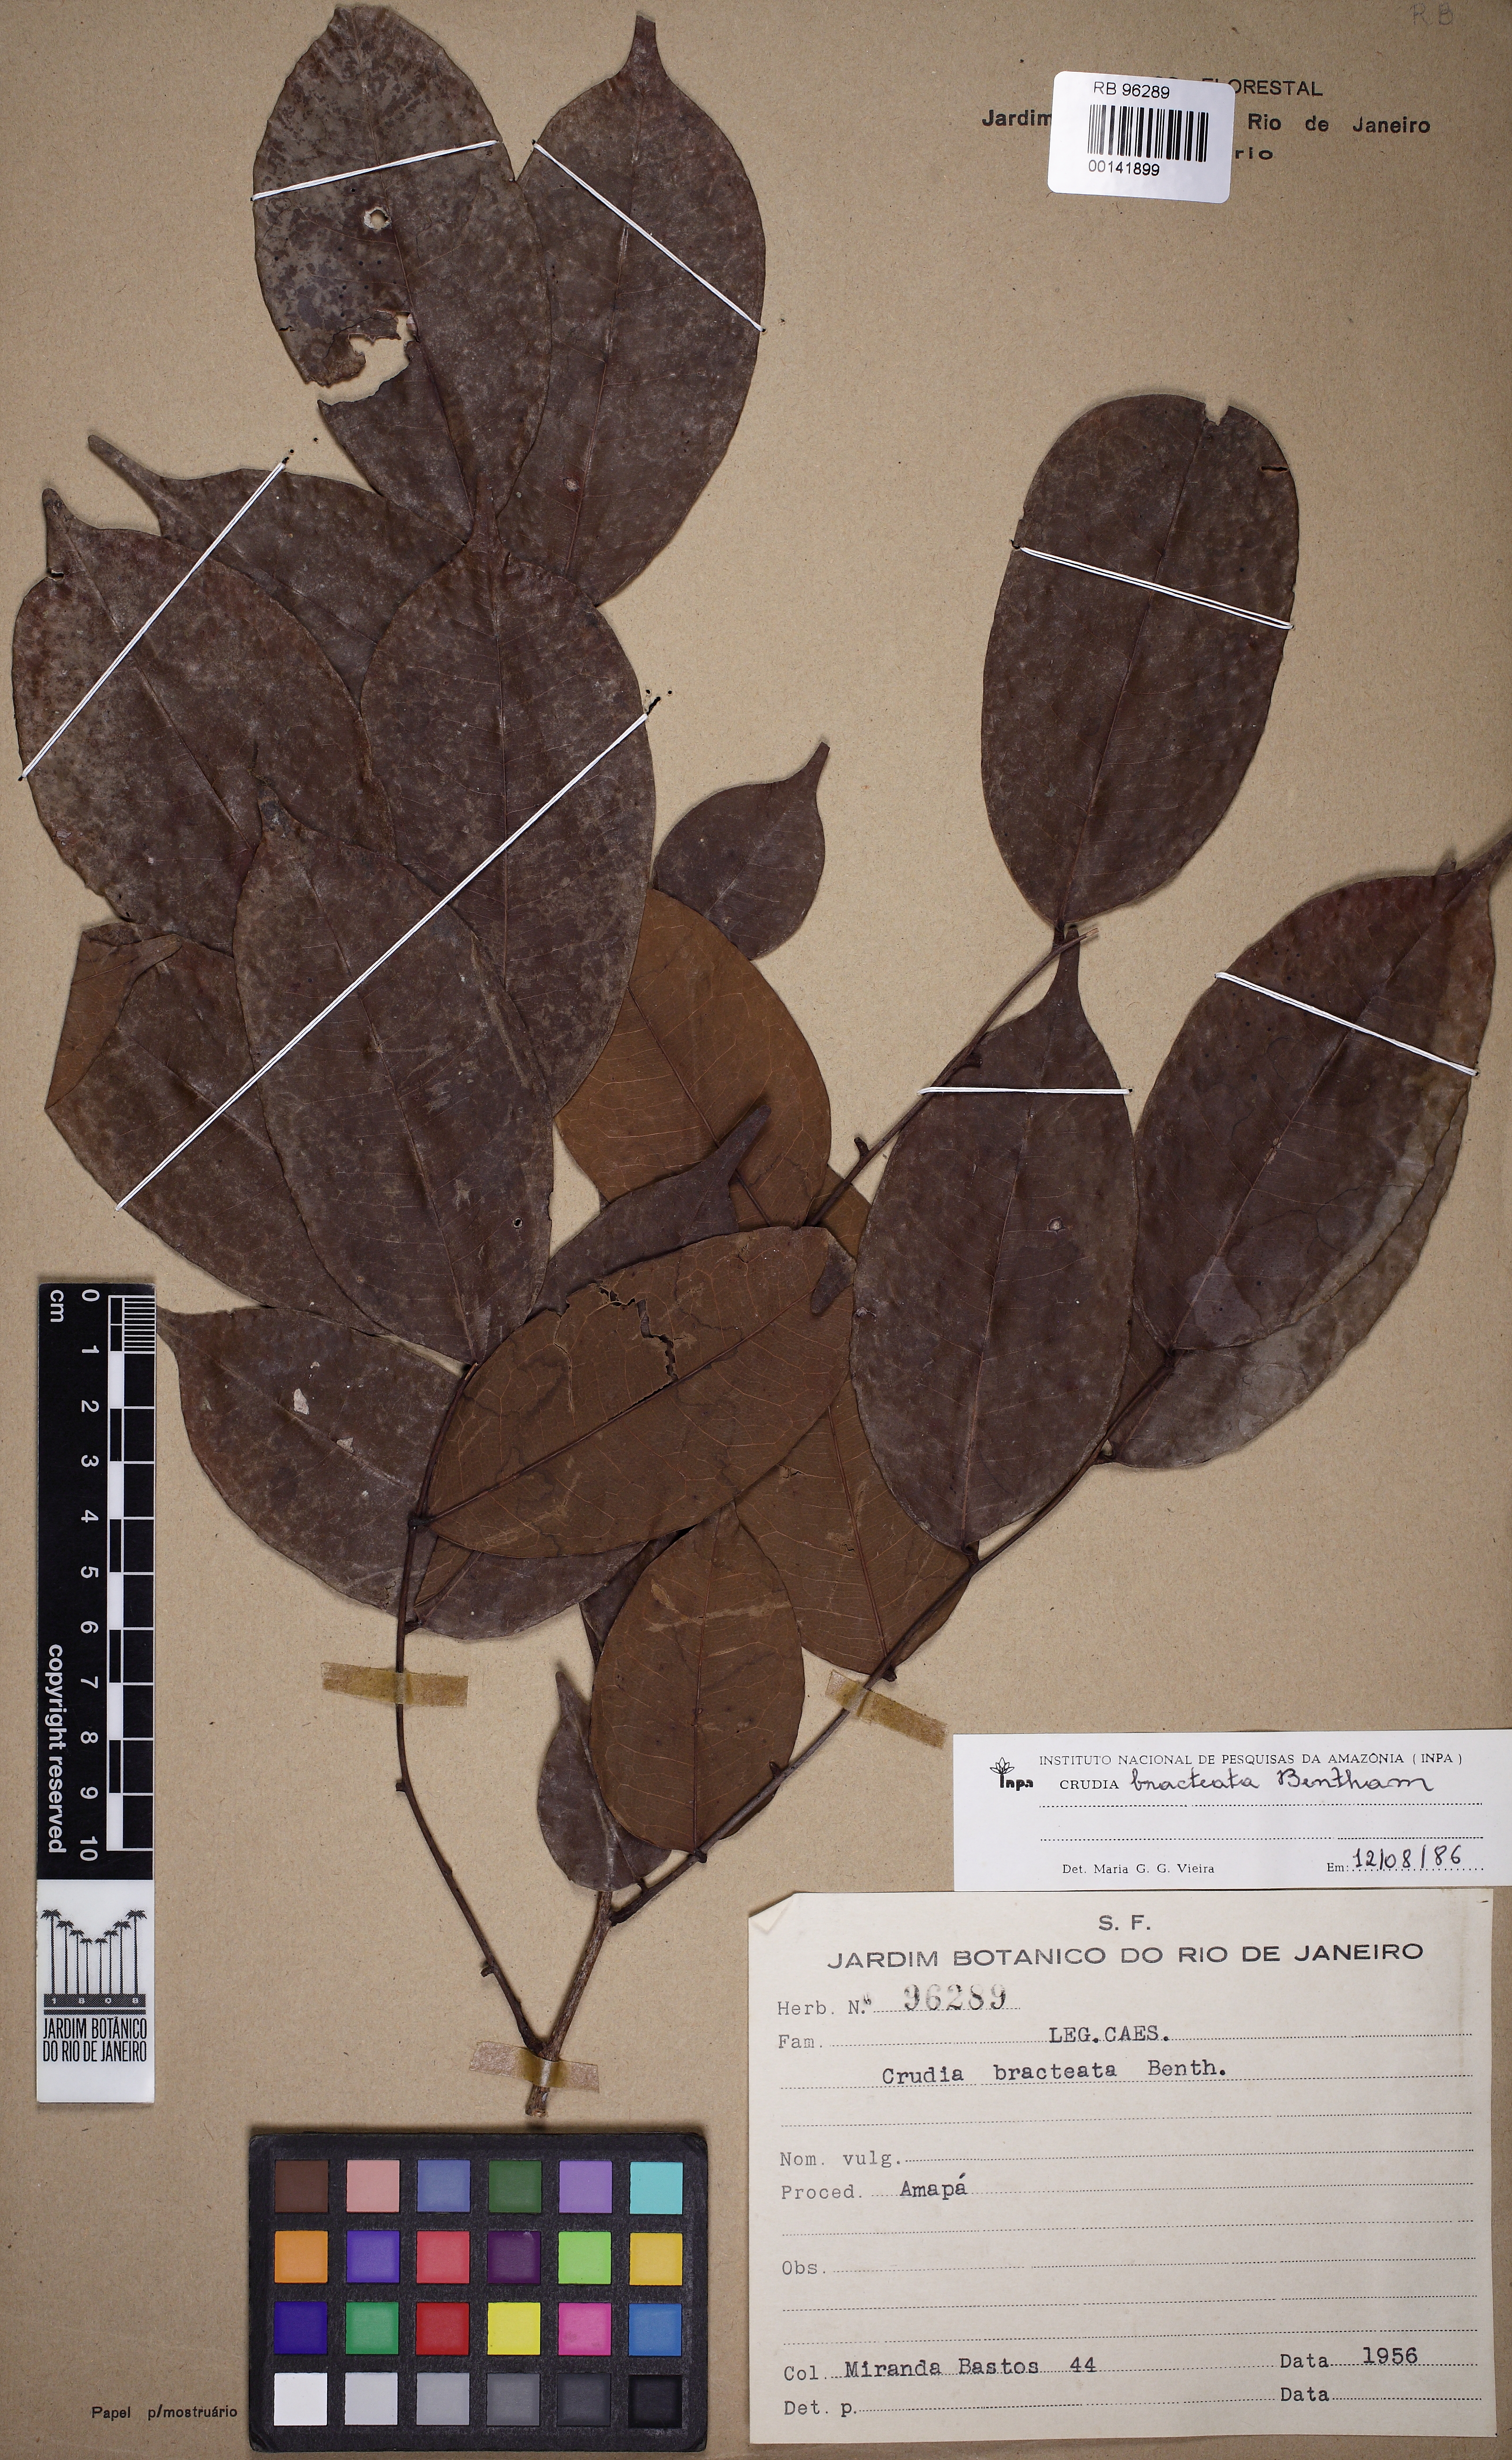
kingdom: Plantae
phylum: Tracheophyta
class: Magnoliopsida
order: Fabales
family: Fabaceae
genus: Crudia
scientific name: Crudia bracteata
